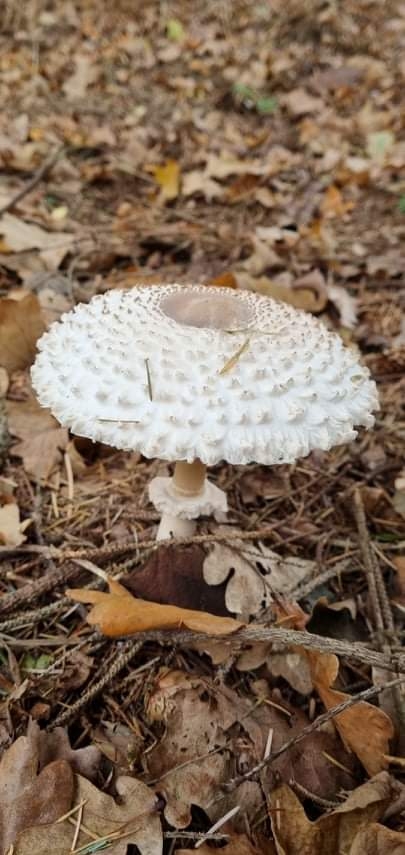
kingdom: Fungi
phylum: Basidiomycota
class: Agaricomycetes
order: Agaricales
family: Agaricaceae
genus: Leucoagaricus
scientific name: Leucoagaricus nympharum
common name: gran-silkehat
